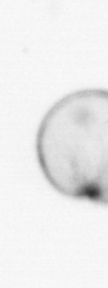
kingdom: Chromista
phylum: Myzozoa
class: Dinophyceae
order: Noctilucales
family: Noctilucaceae
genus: Noctiluca
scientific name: Noctiluca scintillans
